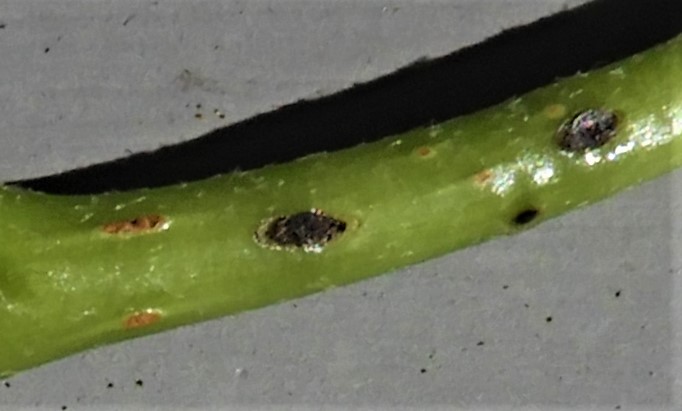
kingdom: Fungi
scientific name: Fungi
